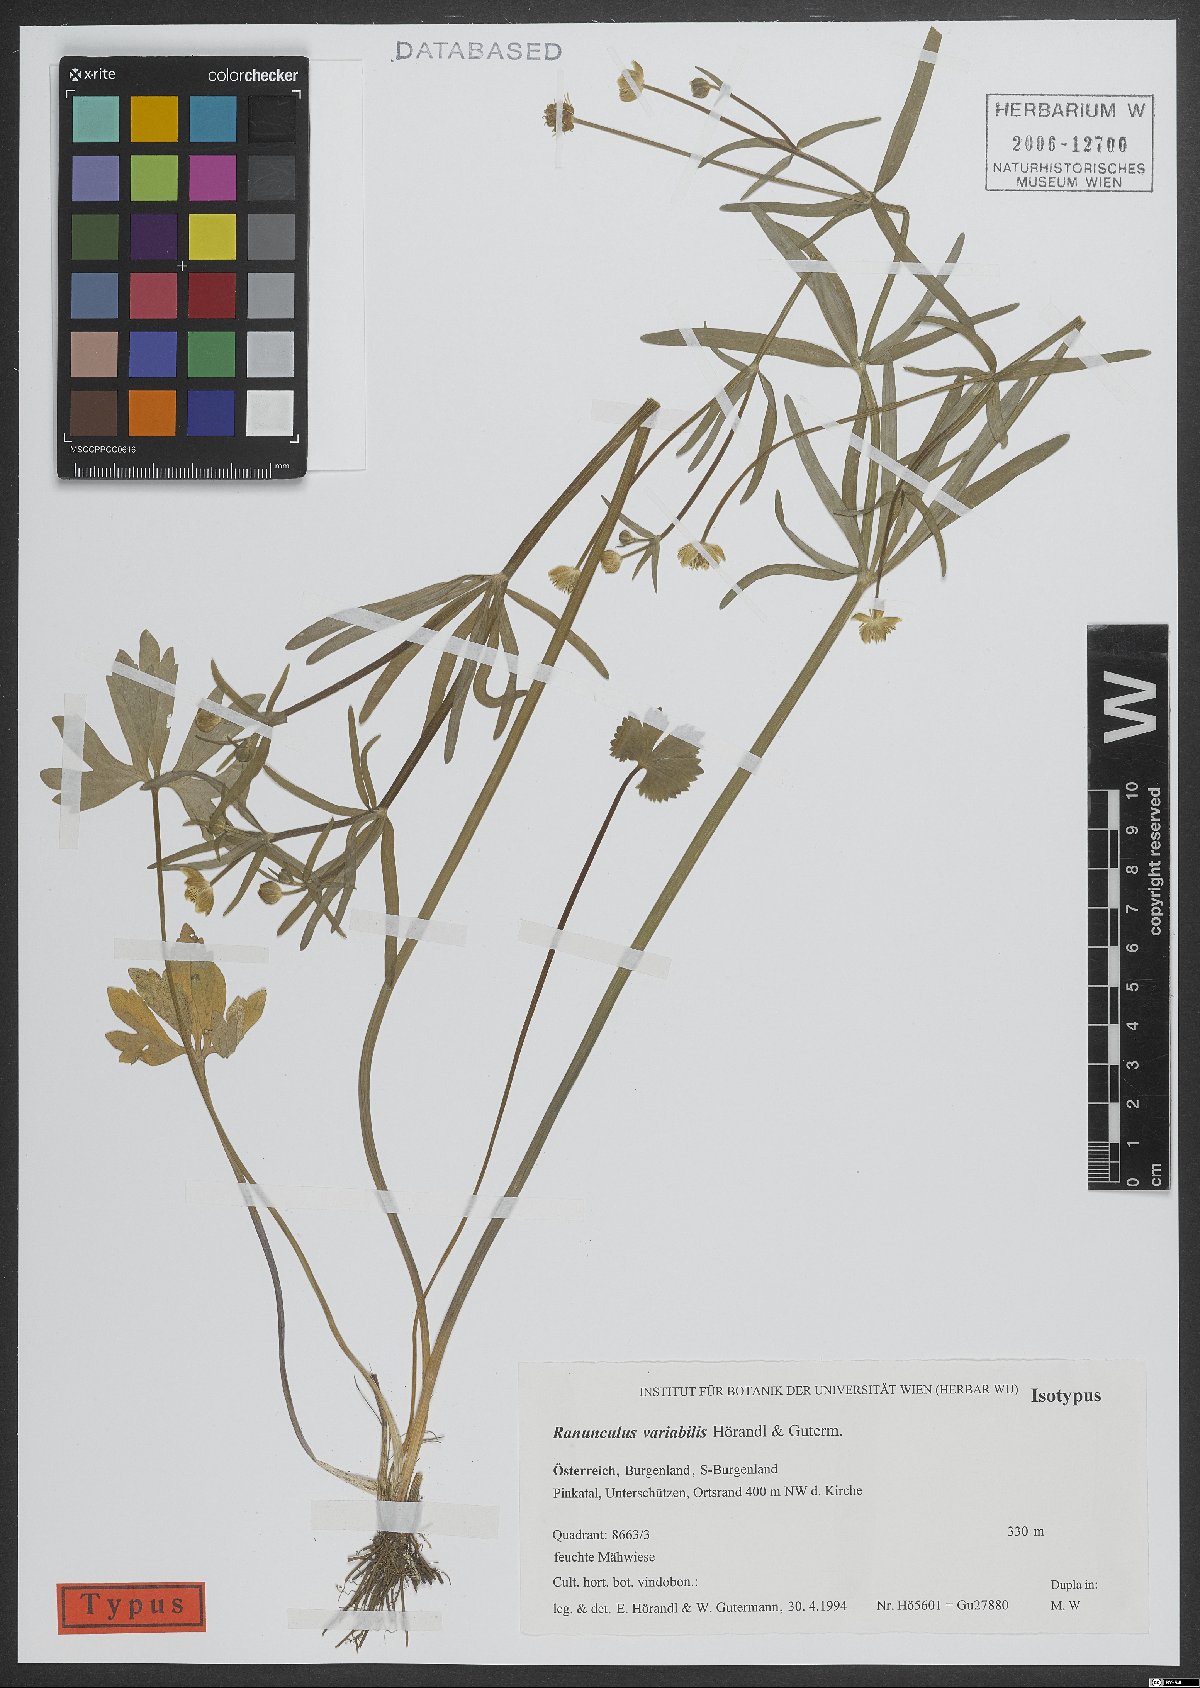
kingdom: Plantae
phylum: Tracheophyta
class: Magnoliopsida
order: Ranunculales
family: Ranunculaceae
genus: Ranunculus
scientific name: Ranunculus variabilis
